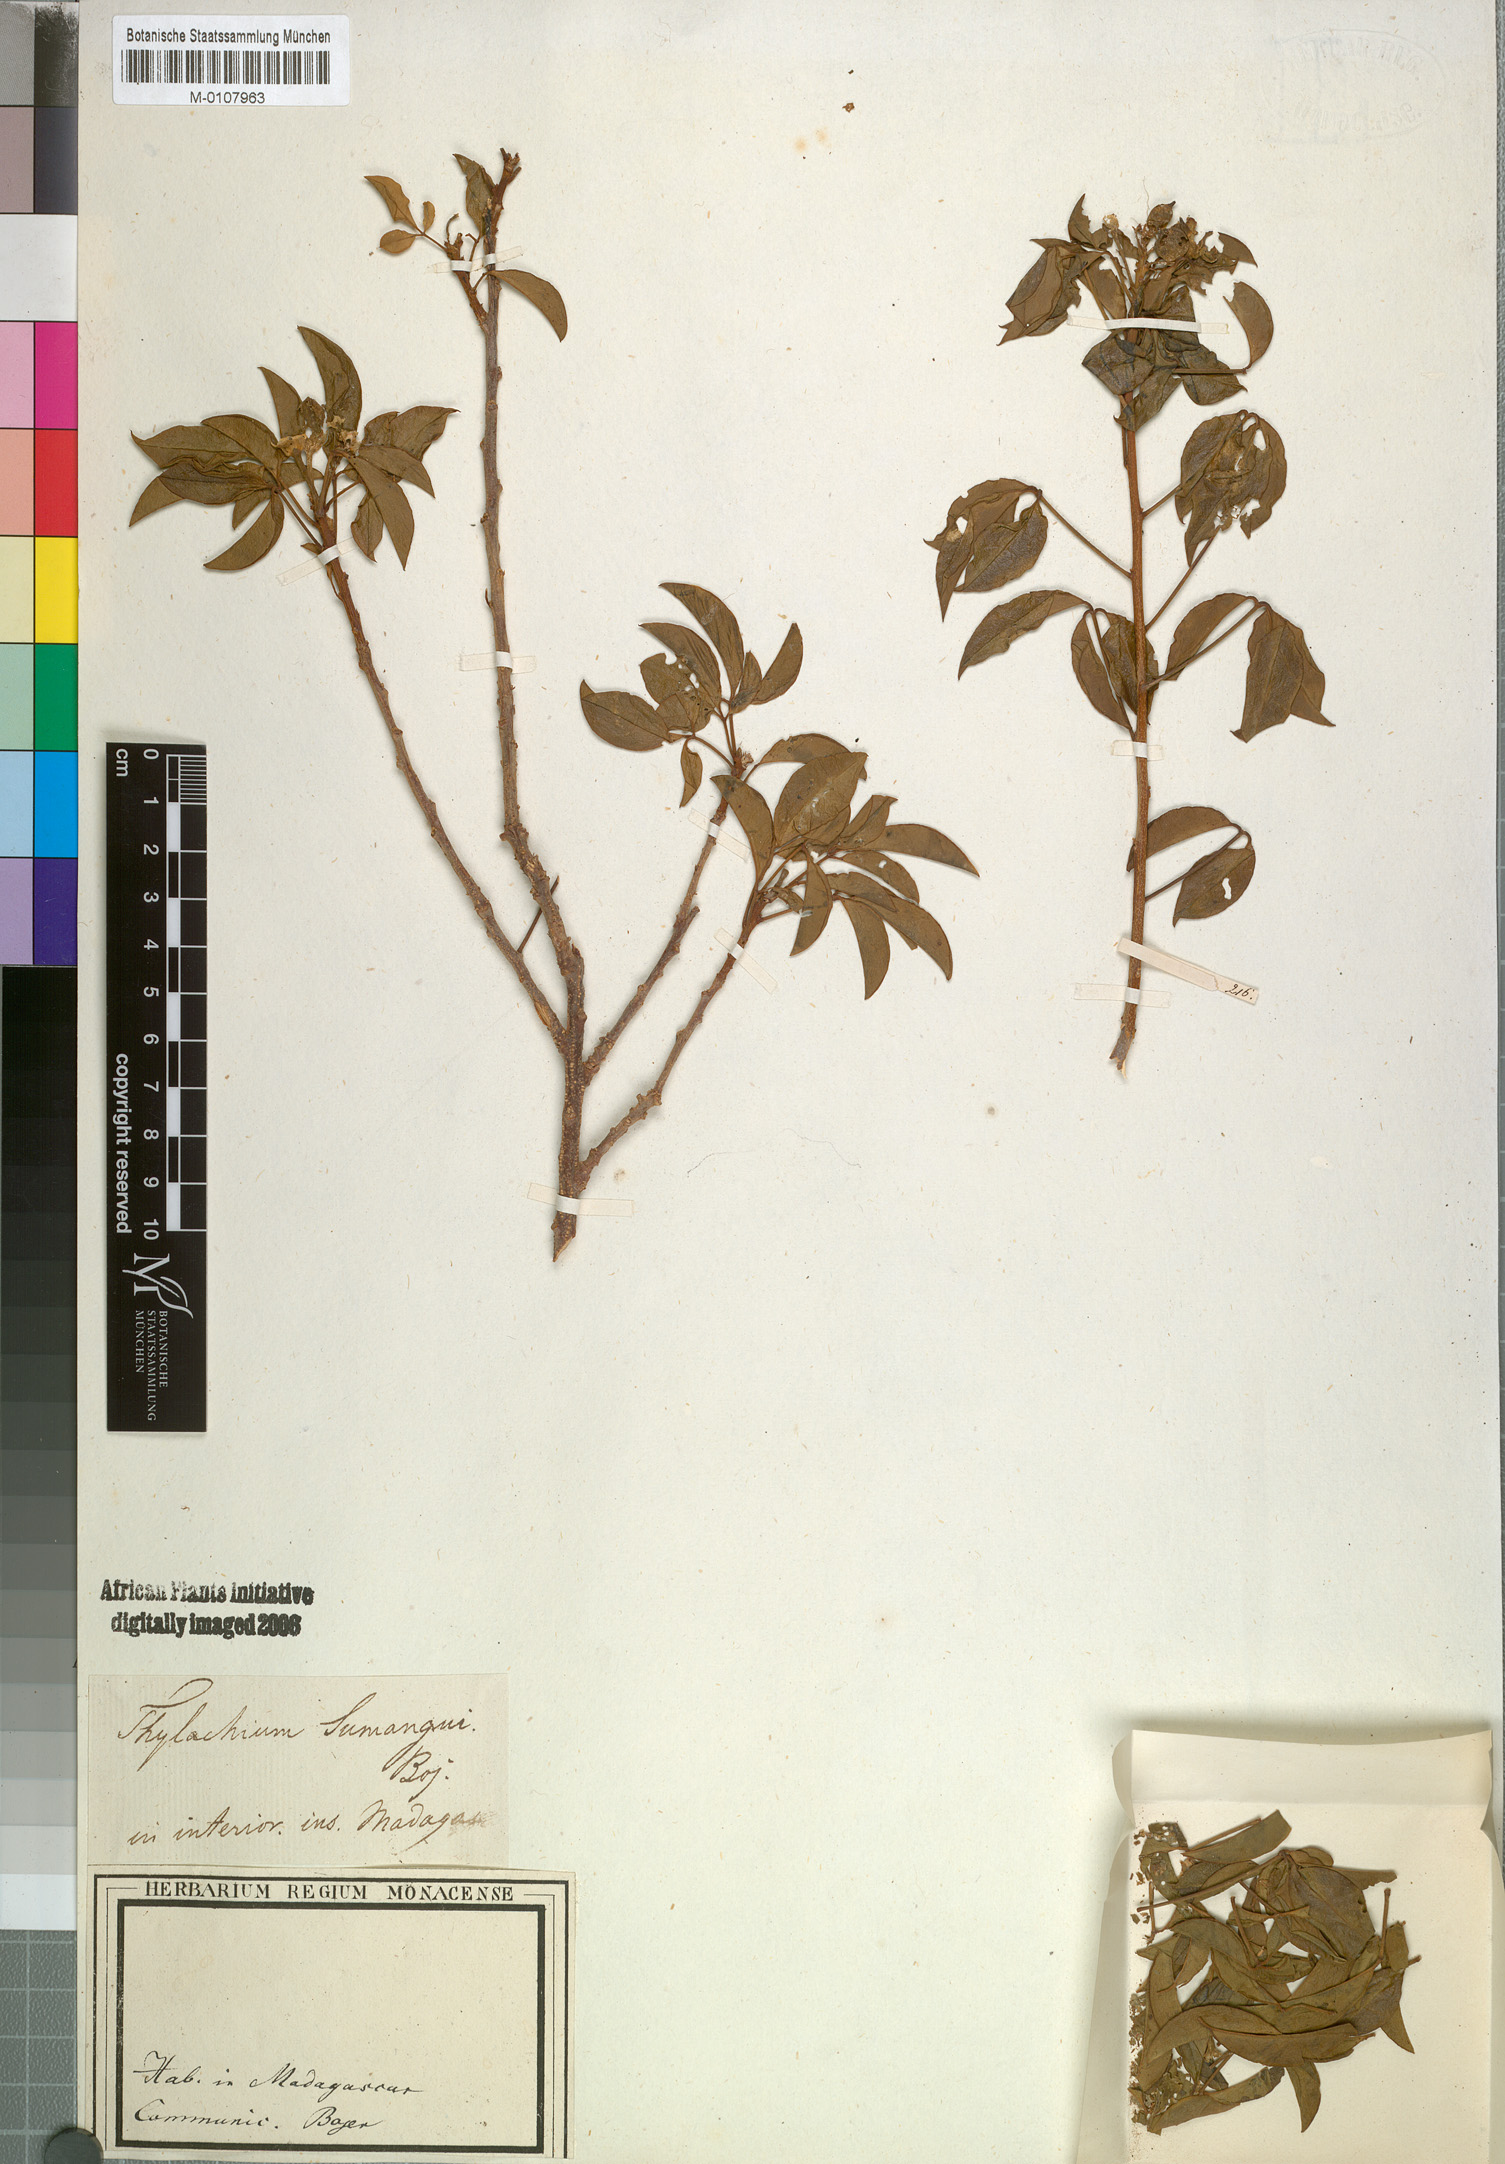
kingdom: Plantae
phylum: Tracheophyta
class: Magnoliopsida
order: Brassicales
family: Capparaceae
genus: Thilachium
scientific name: Thilachium sumangui
